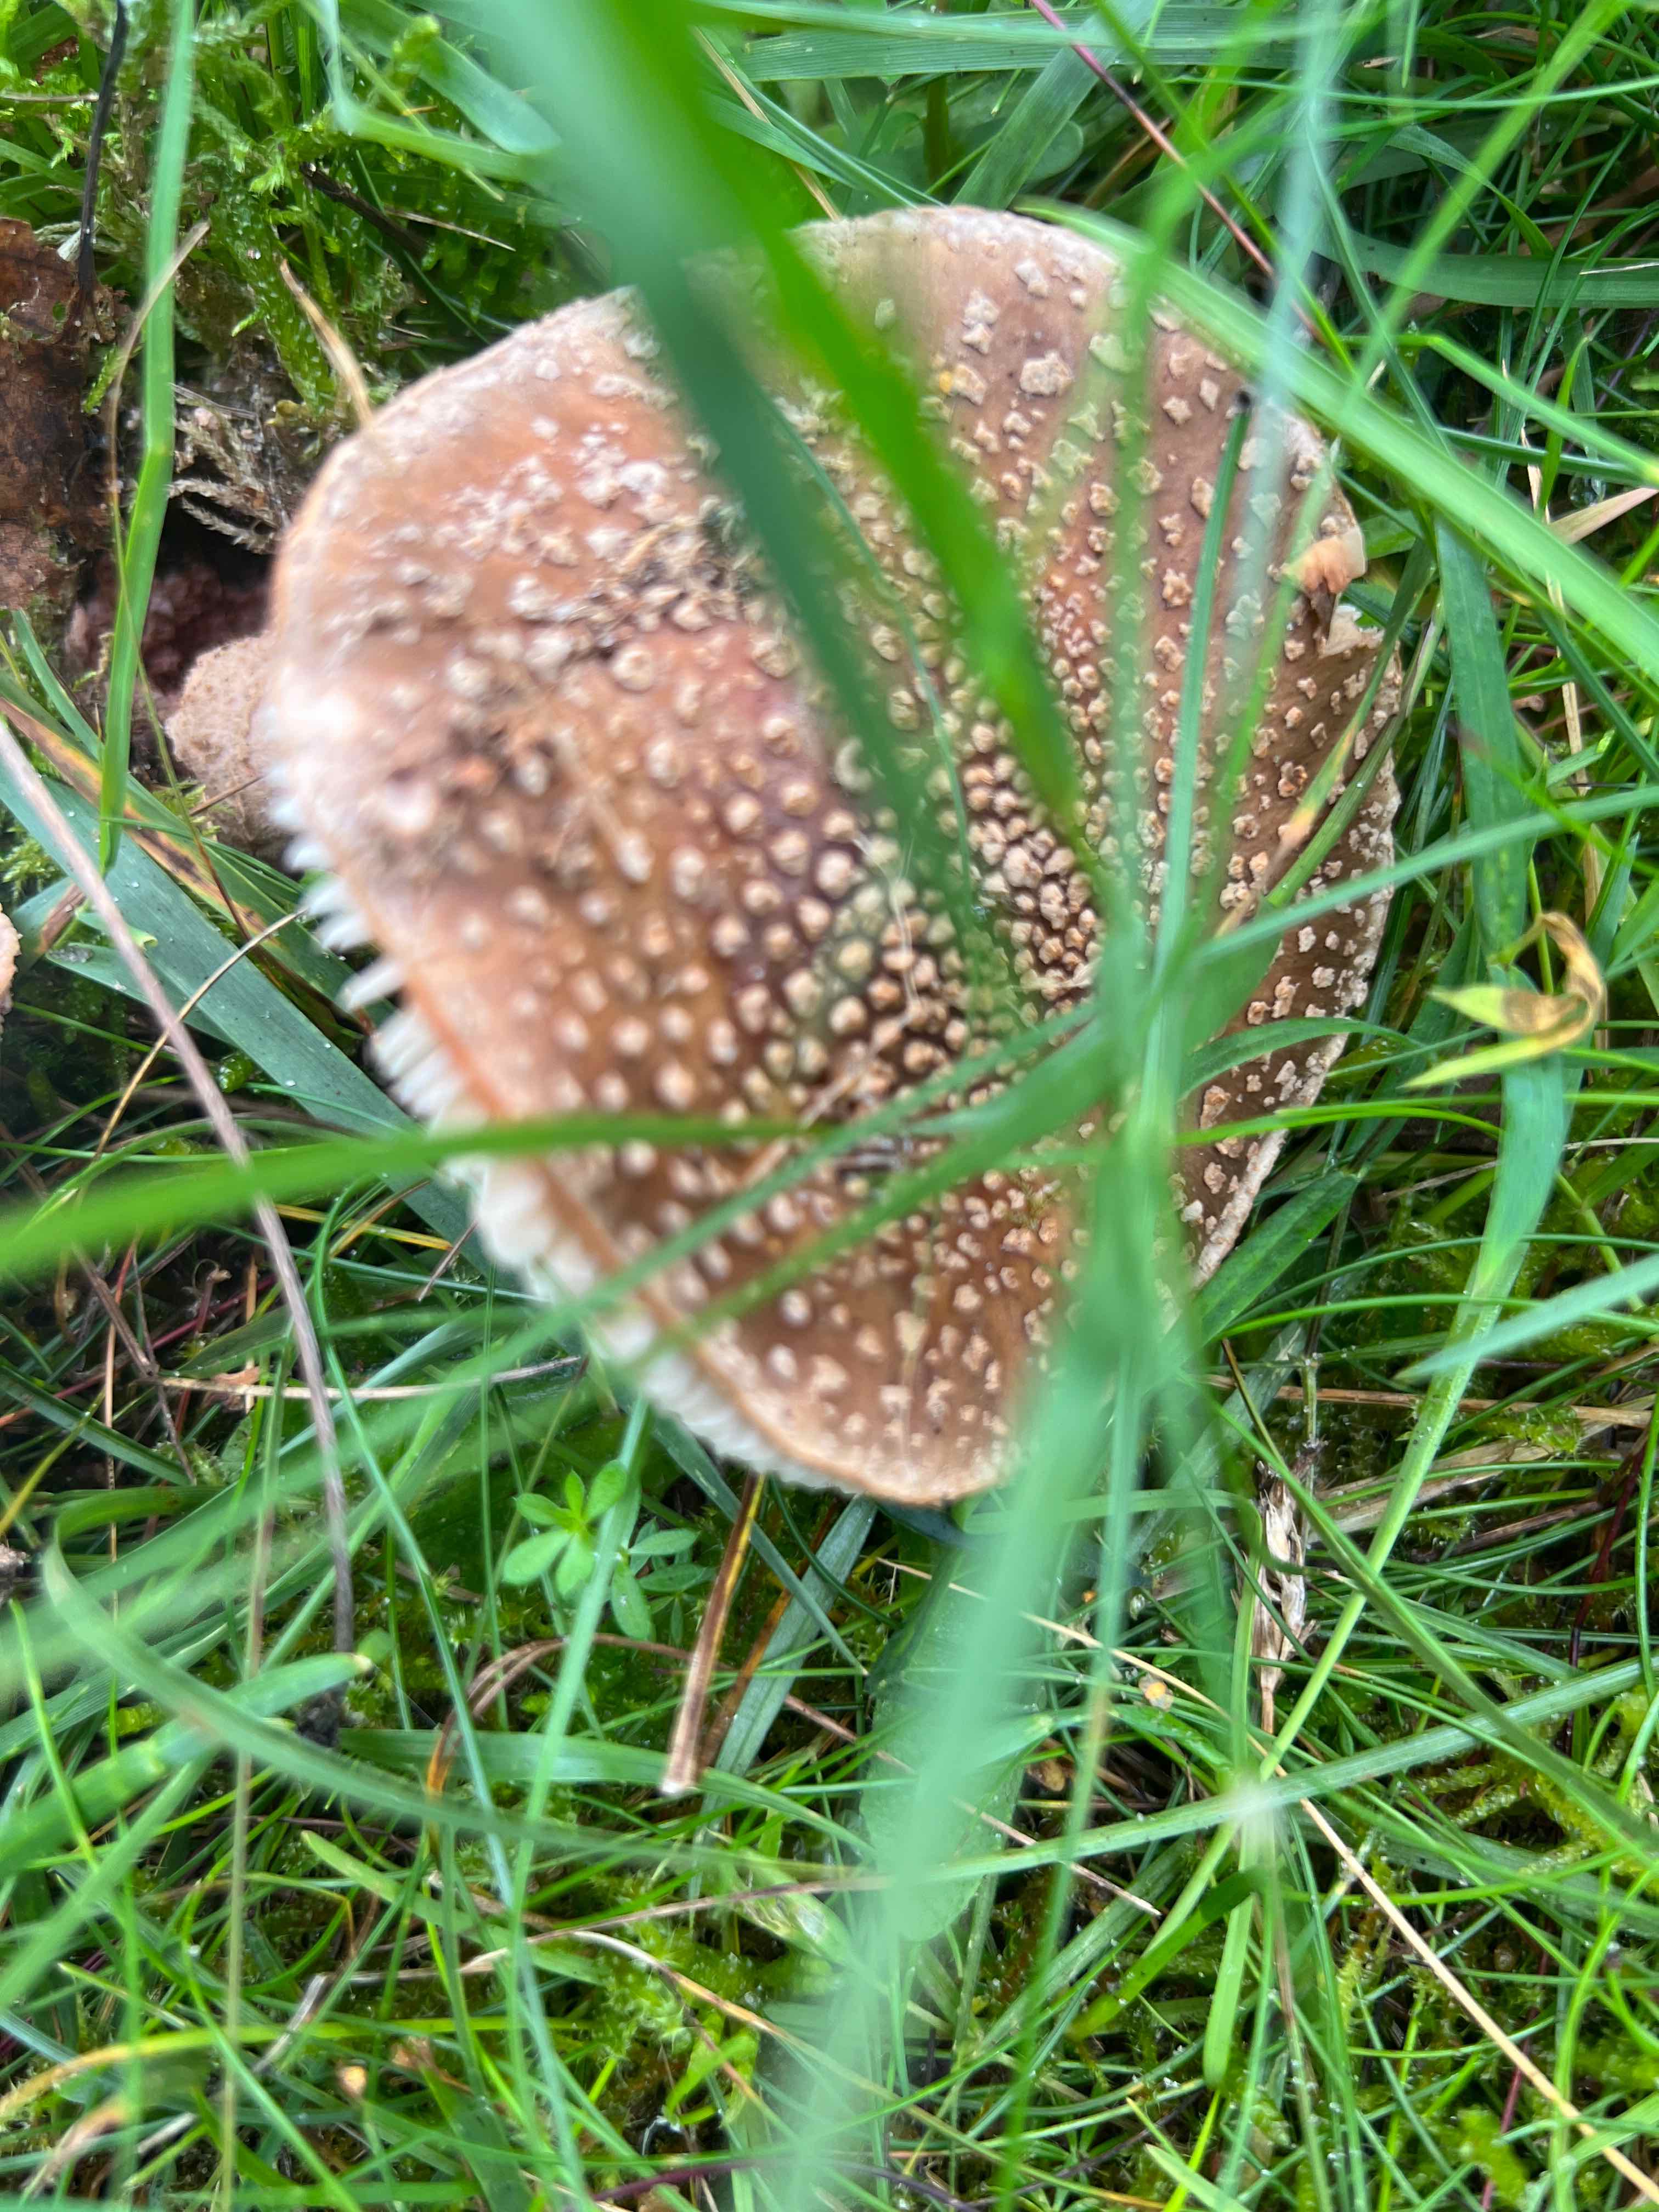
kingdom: Fungi
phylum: Basidiomycota
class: Agaricomycetes
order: Agaricales
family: Amanitaceae
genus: Amanita
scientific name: Amanita rubescens
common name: rødmende fluesvamp
